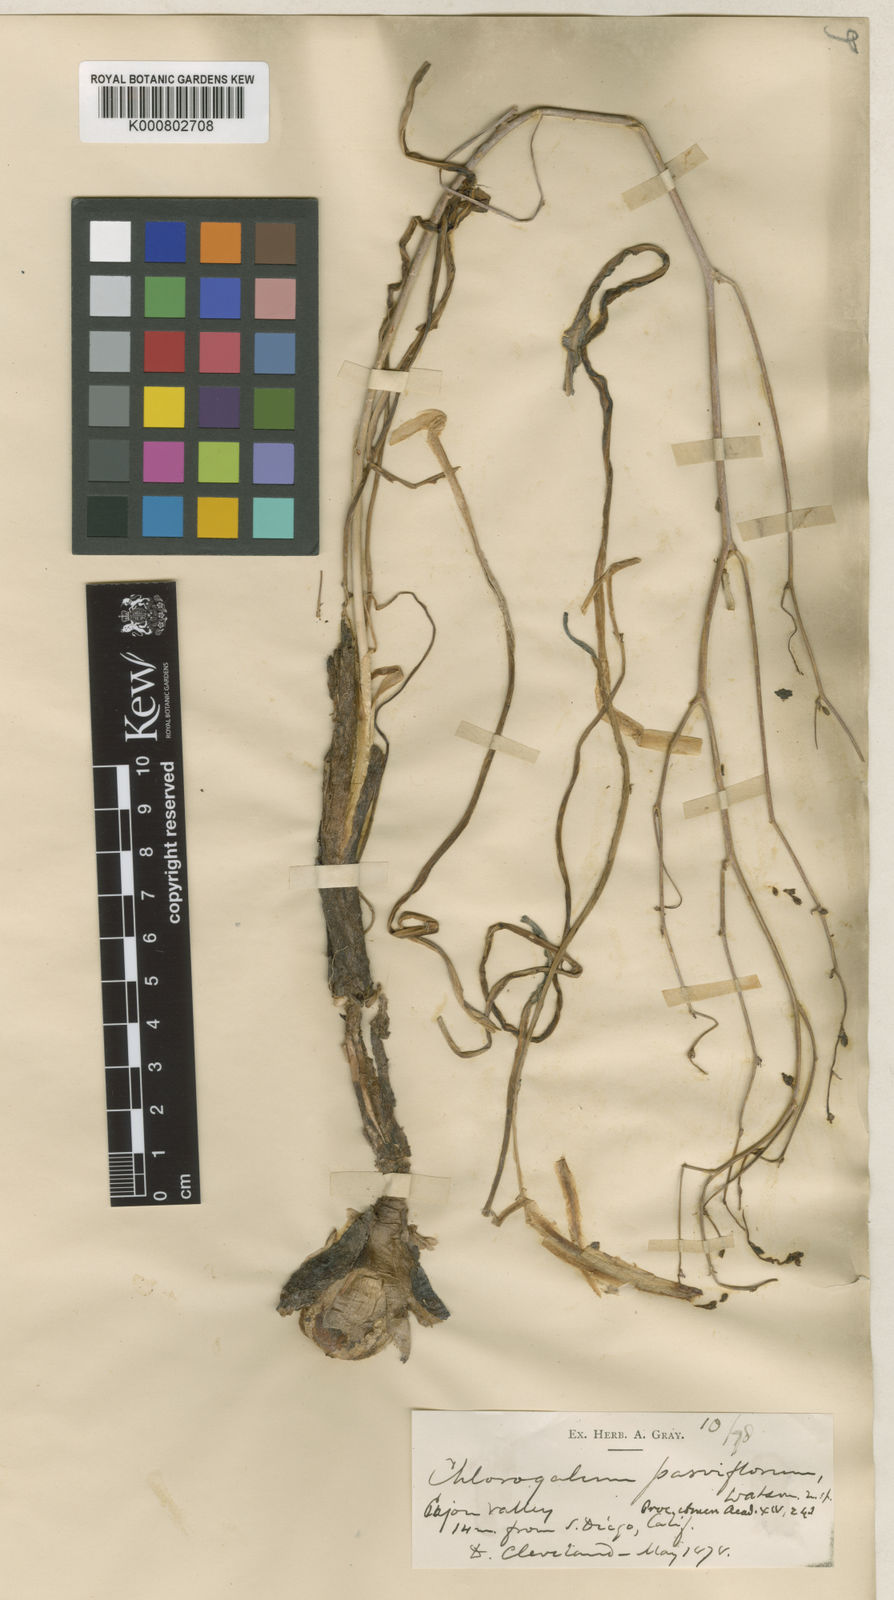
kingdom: Plantae
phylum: Tracheophyta
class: Liliopsida
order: Asparagales
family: Asparagaceae
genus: Hooveria
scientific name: Hooveria parviflora
